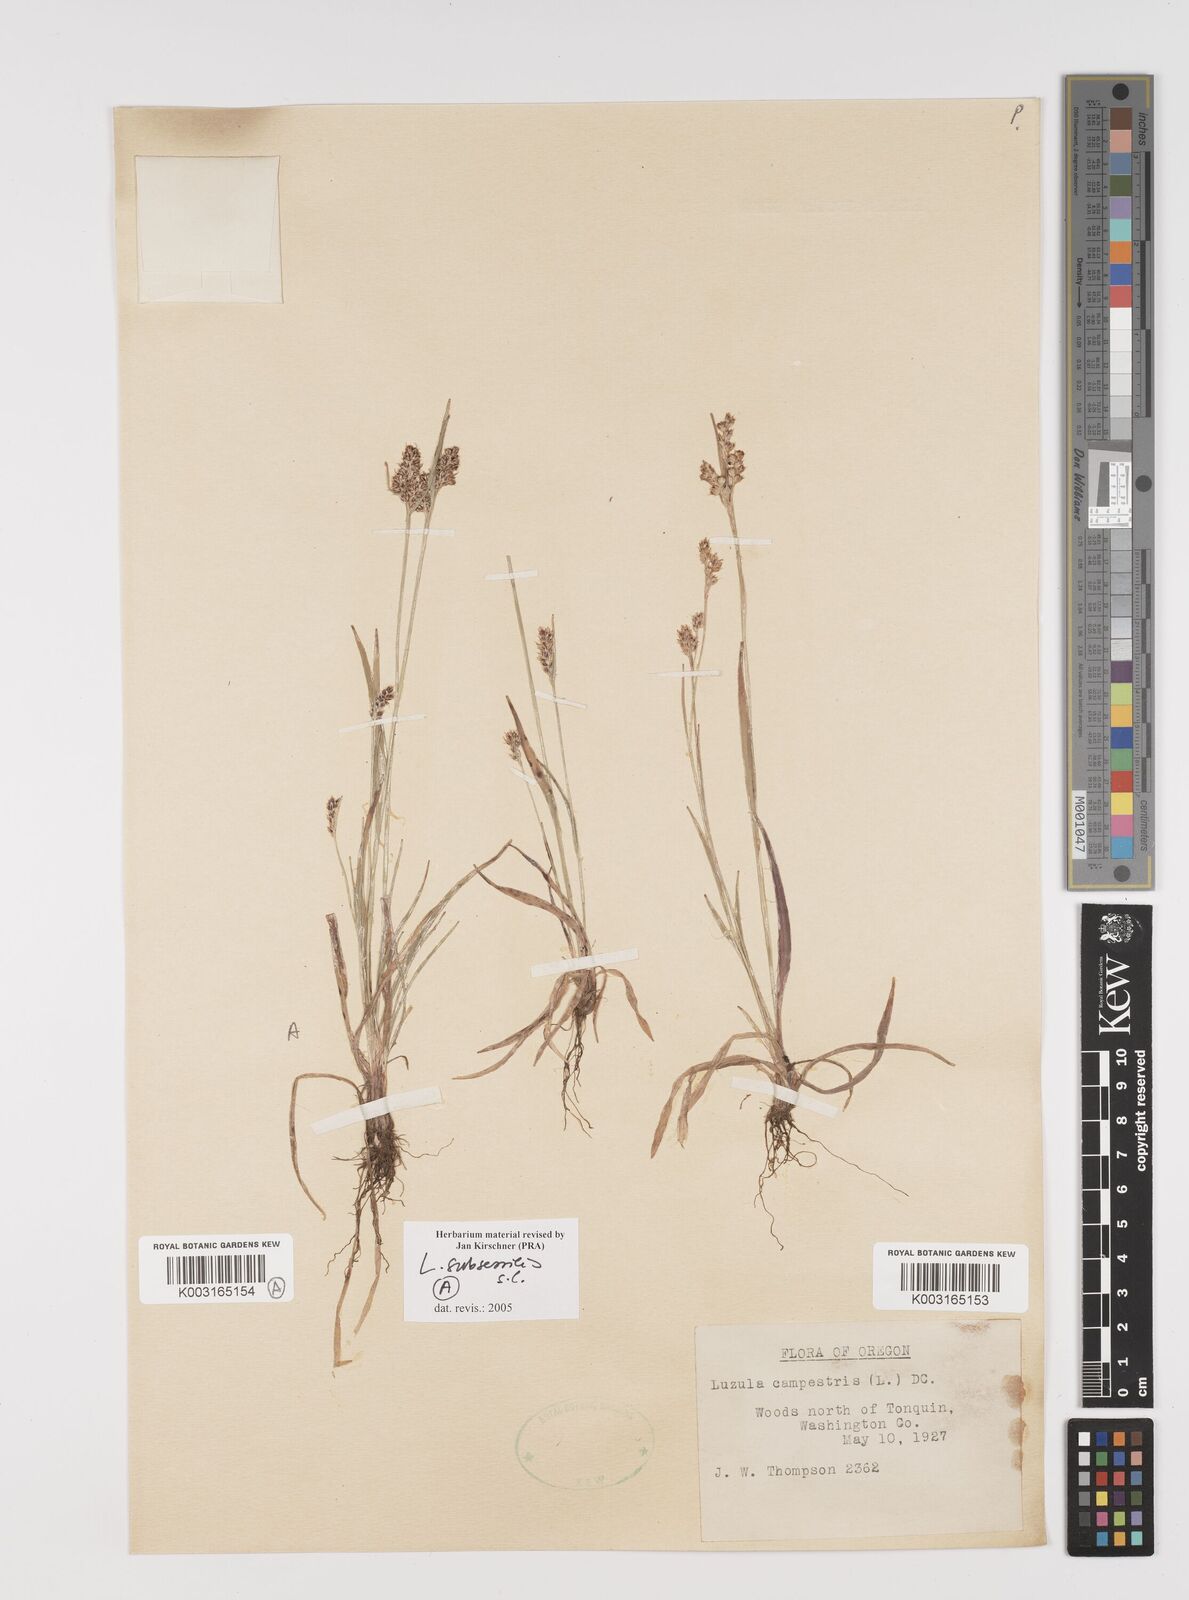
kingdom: Plantae
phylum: Tracheophyta
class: Liliopsida
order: Poales
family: Juncaceae
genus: Luzula
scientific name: Luzula macrantha
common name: Large-anthered woodrush
